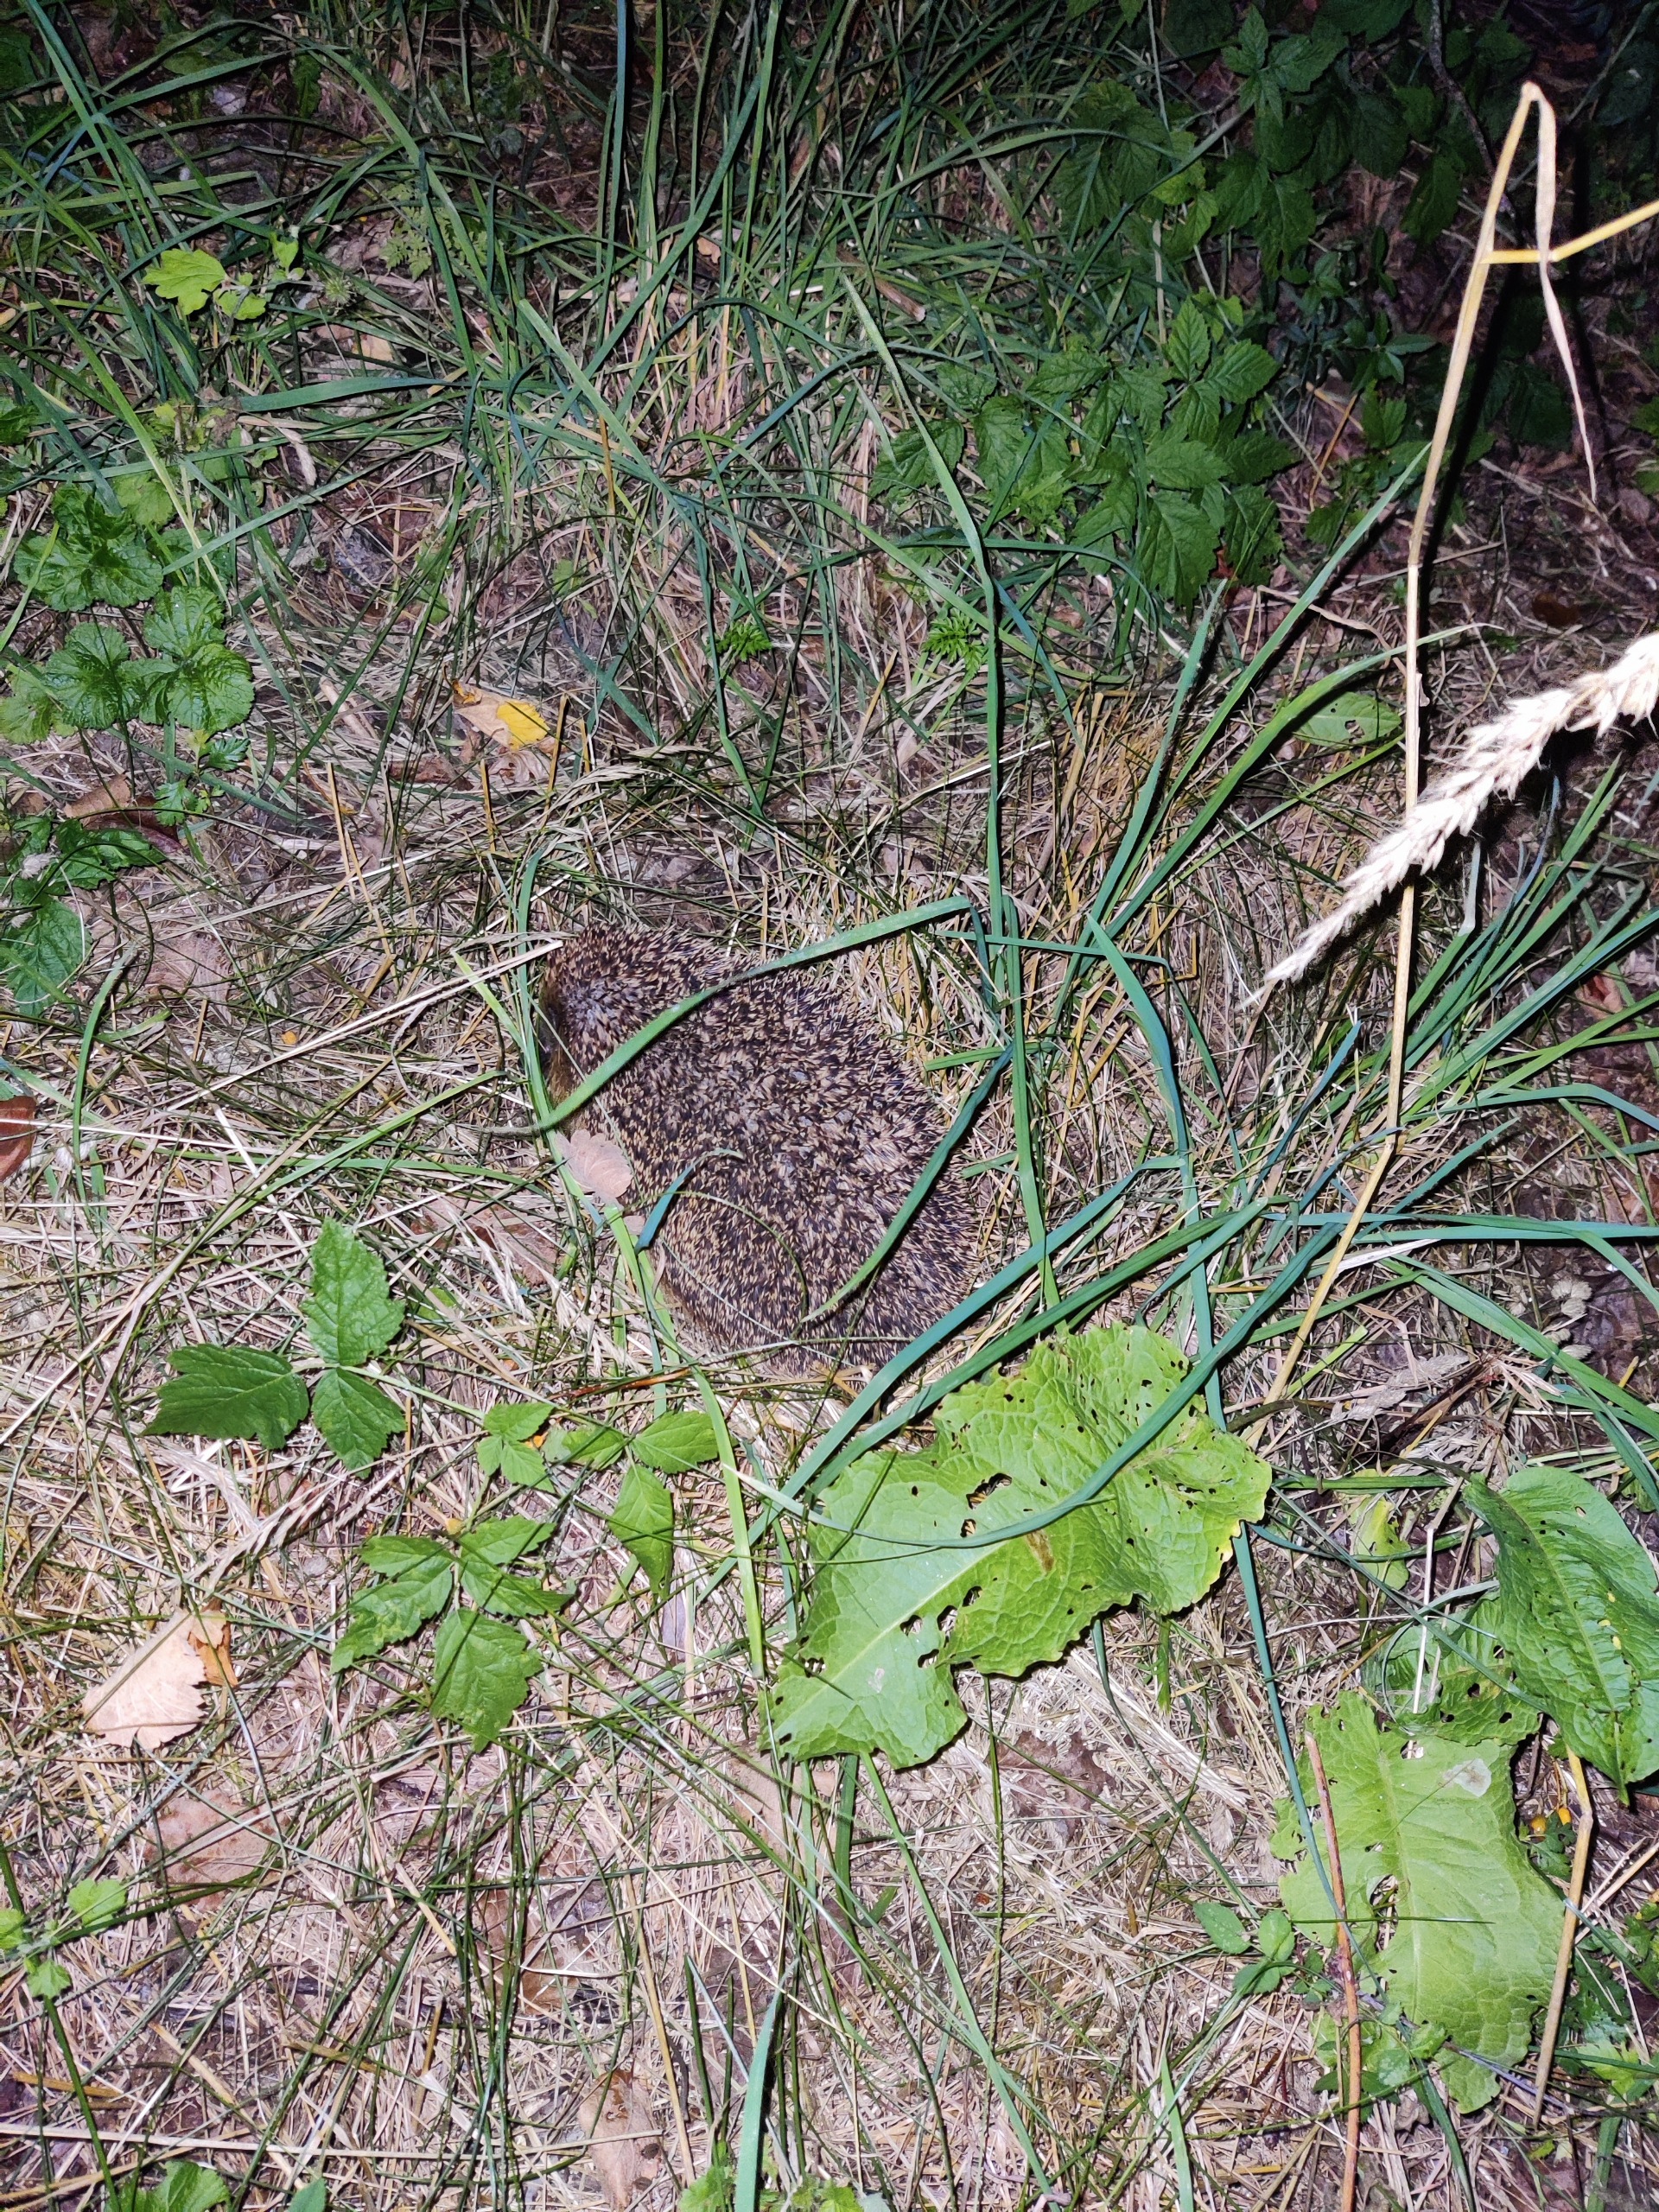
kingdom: Animalia
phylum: Chordata
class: Mammalia
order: Erinaceomorpha
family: Erinaceidae
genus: Erinaceus
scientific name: Erinaceus europaeus
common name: Pindsvin
